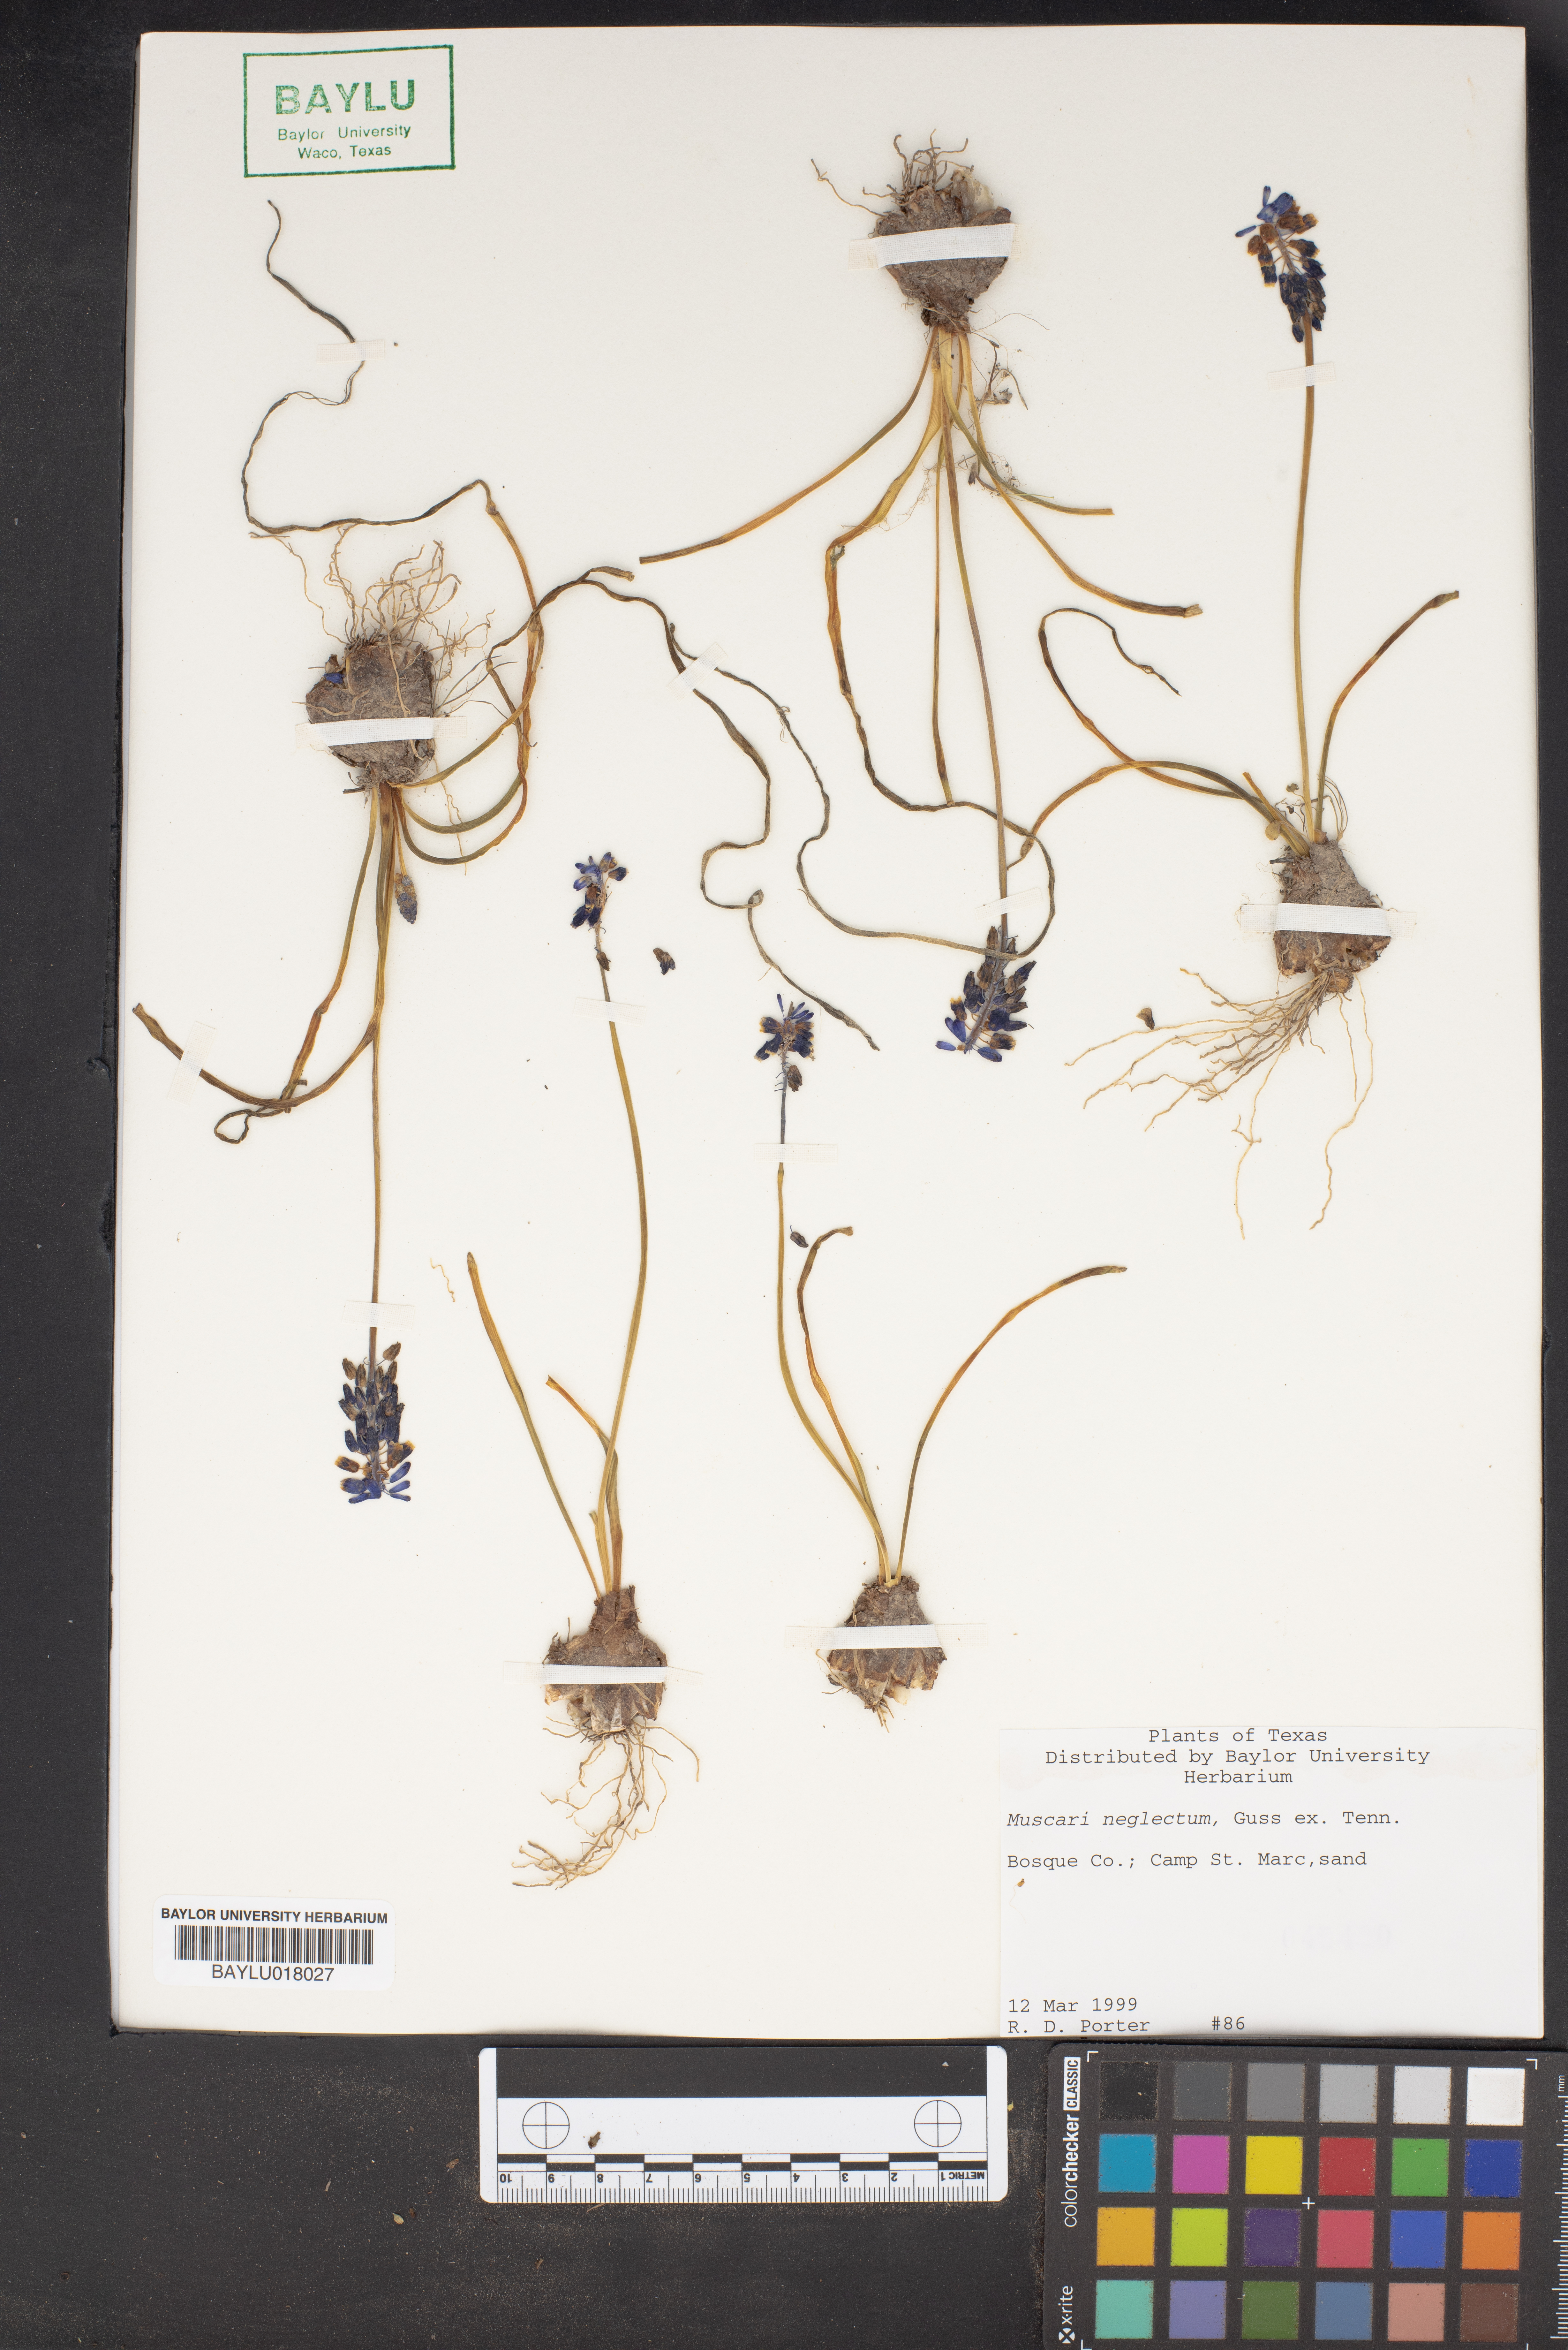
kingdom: Plantae
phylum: Tracheophyta
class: Liliopsida
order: Asparagales
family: Asparagaceae
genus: Muscari
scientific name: Muscari neglectum
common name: Grape-hyacinth
